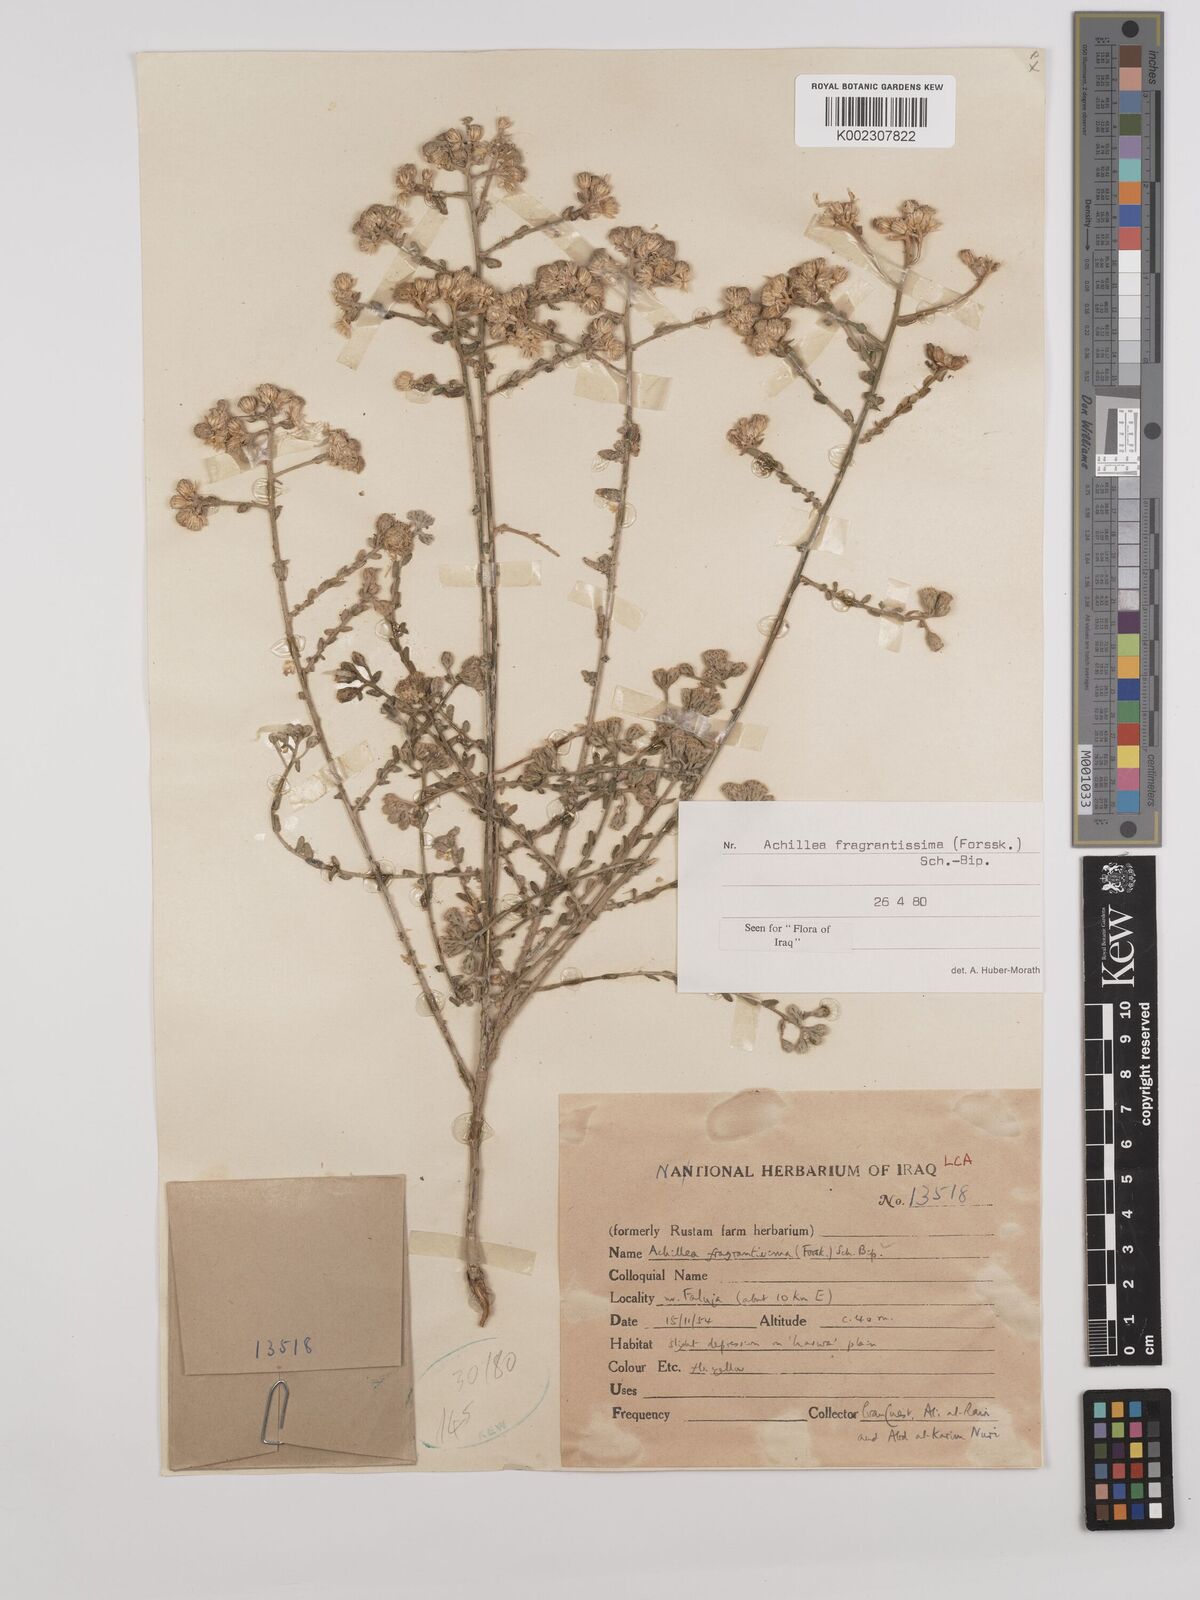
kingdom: Plantae
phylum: Tracheophyta
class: Magnoliopsida
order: Asterales
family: Asteraceae
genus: Achillea
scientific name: Achillea fragrantissima
